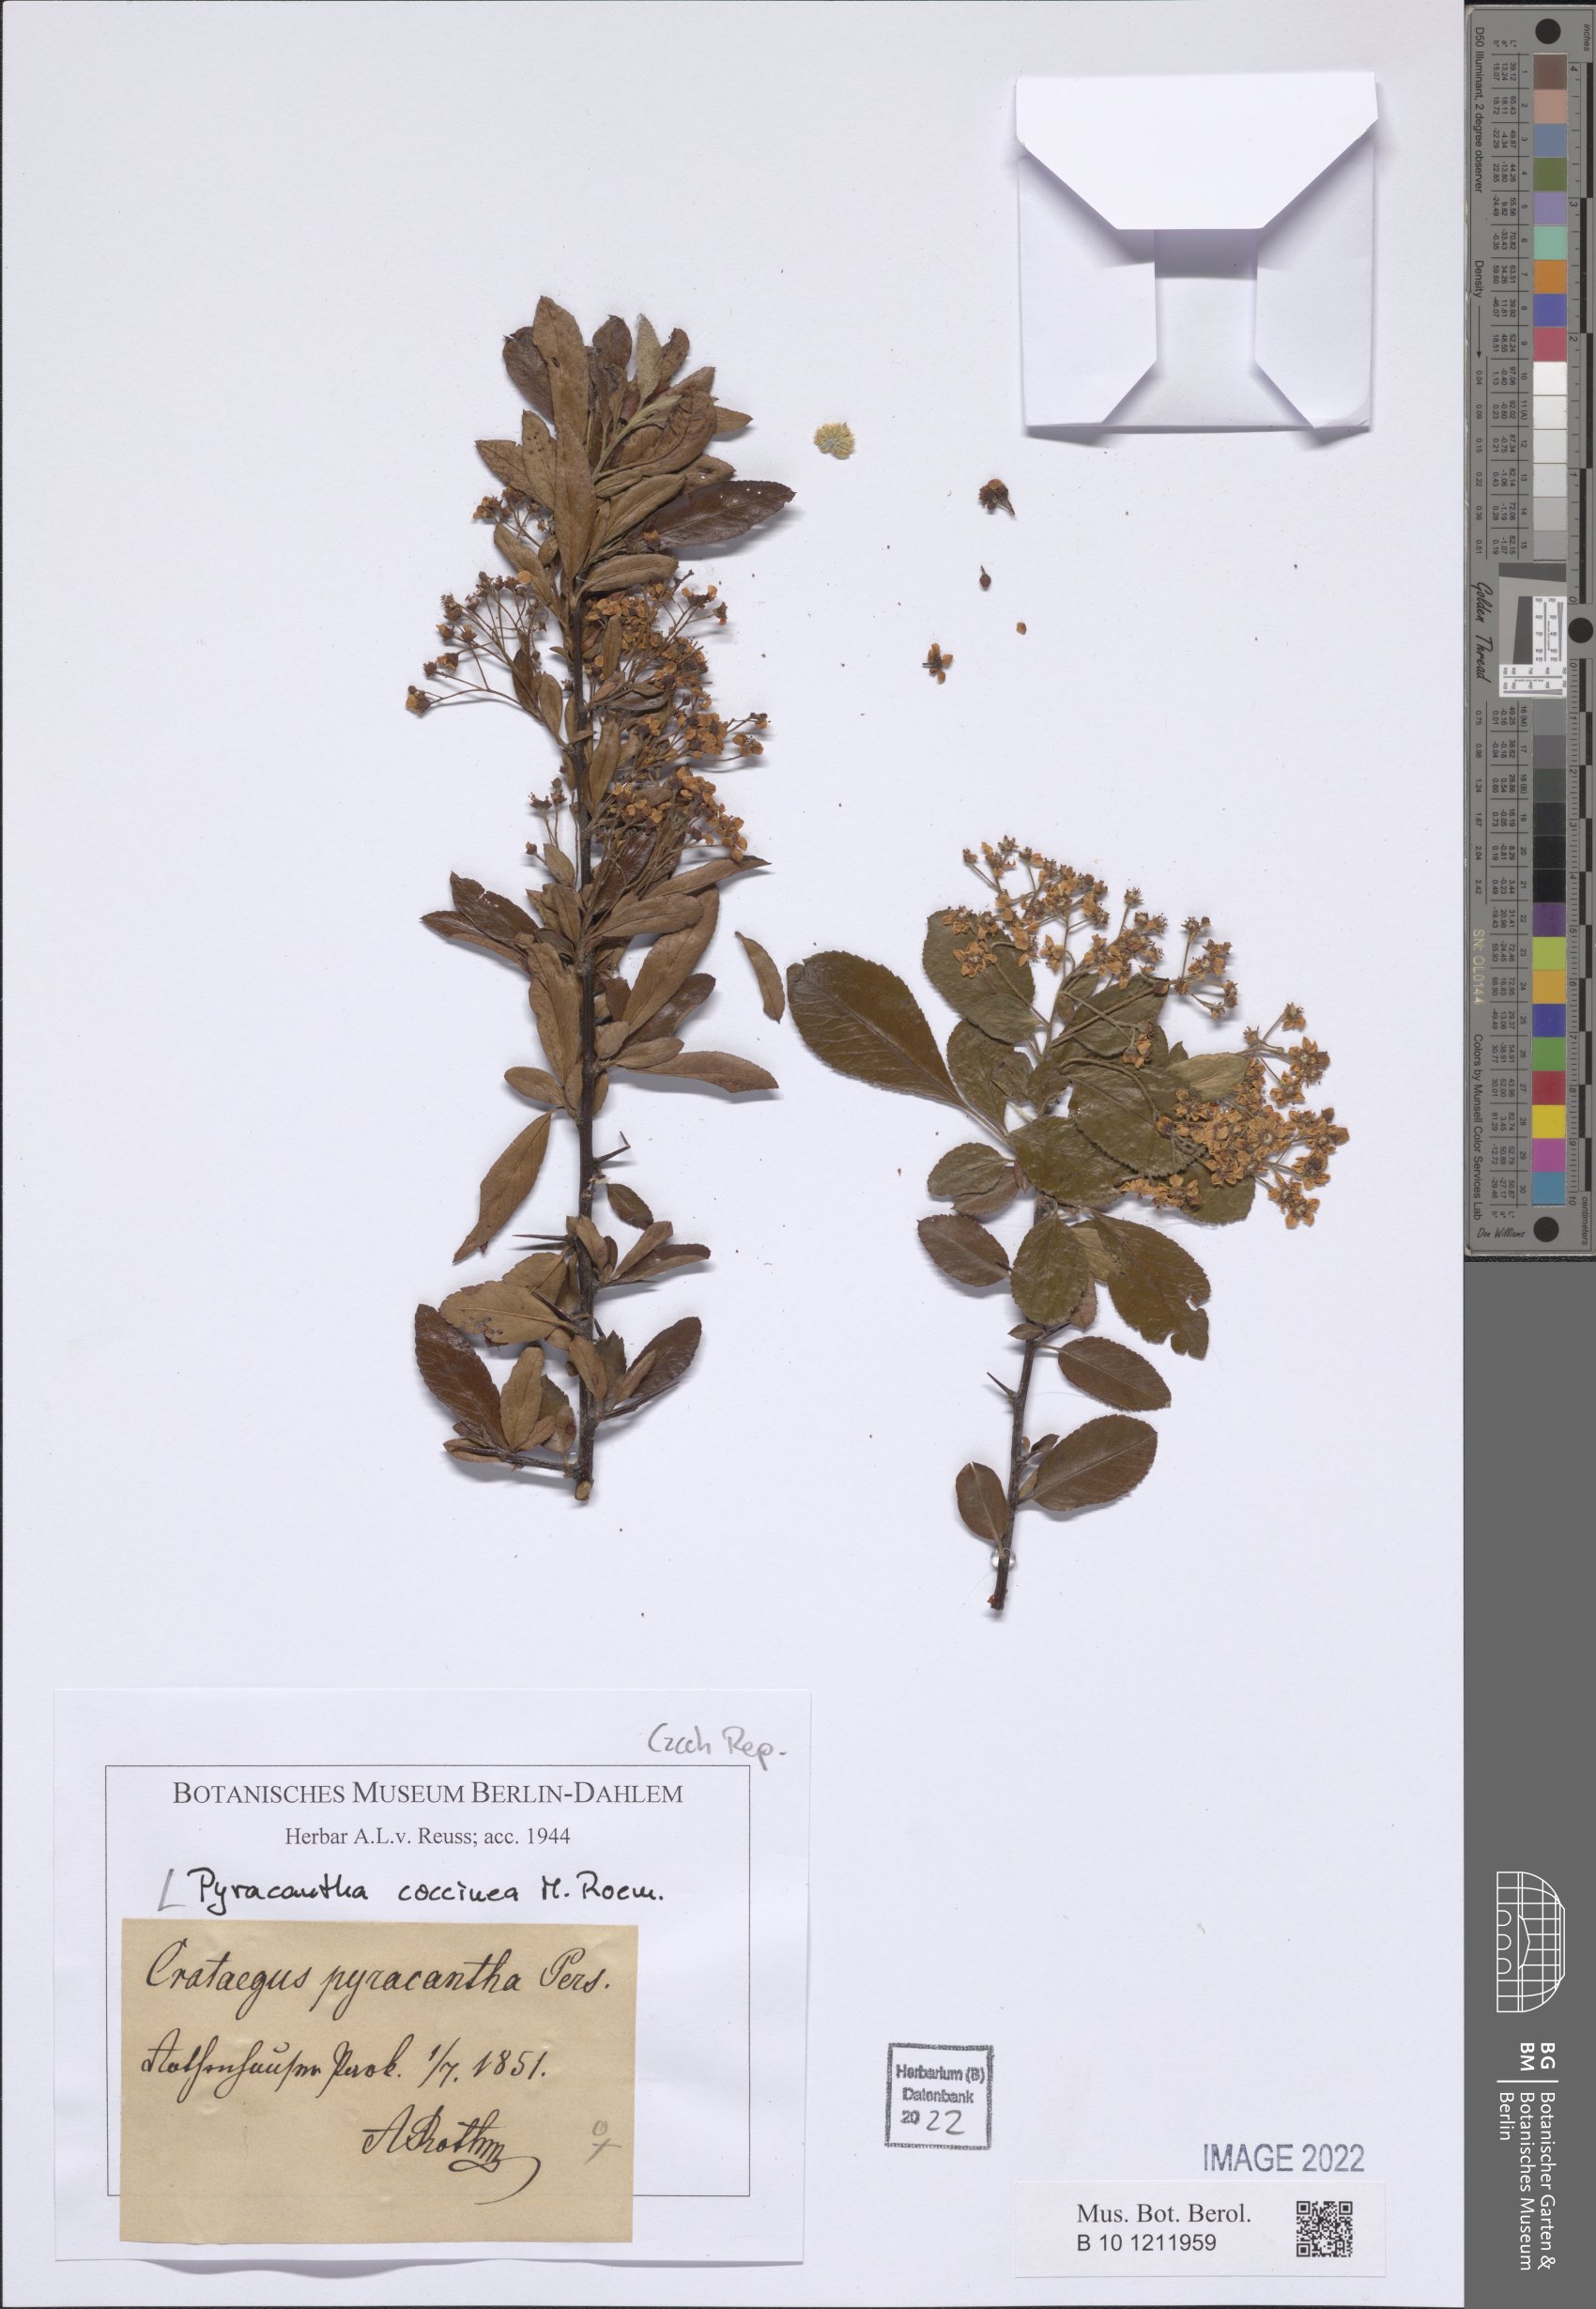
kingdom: Plantae
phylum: Tracheophyta
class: Magnoliopsida
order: Rosales
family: Rosaceae
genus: Pyracantha
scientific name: Pyracantha coccinea
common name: Firethorn
